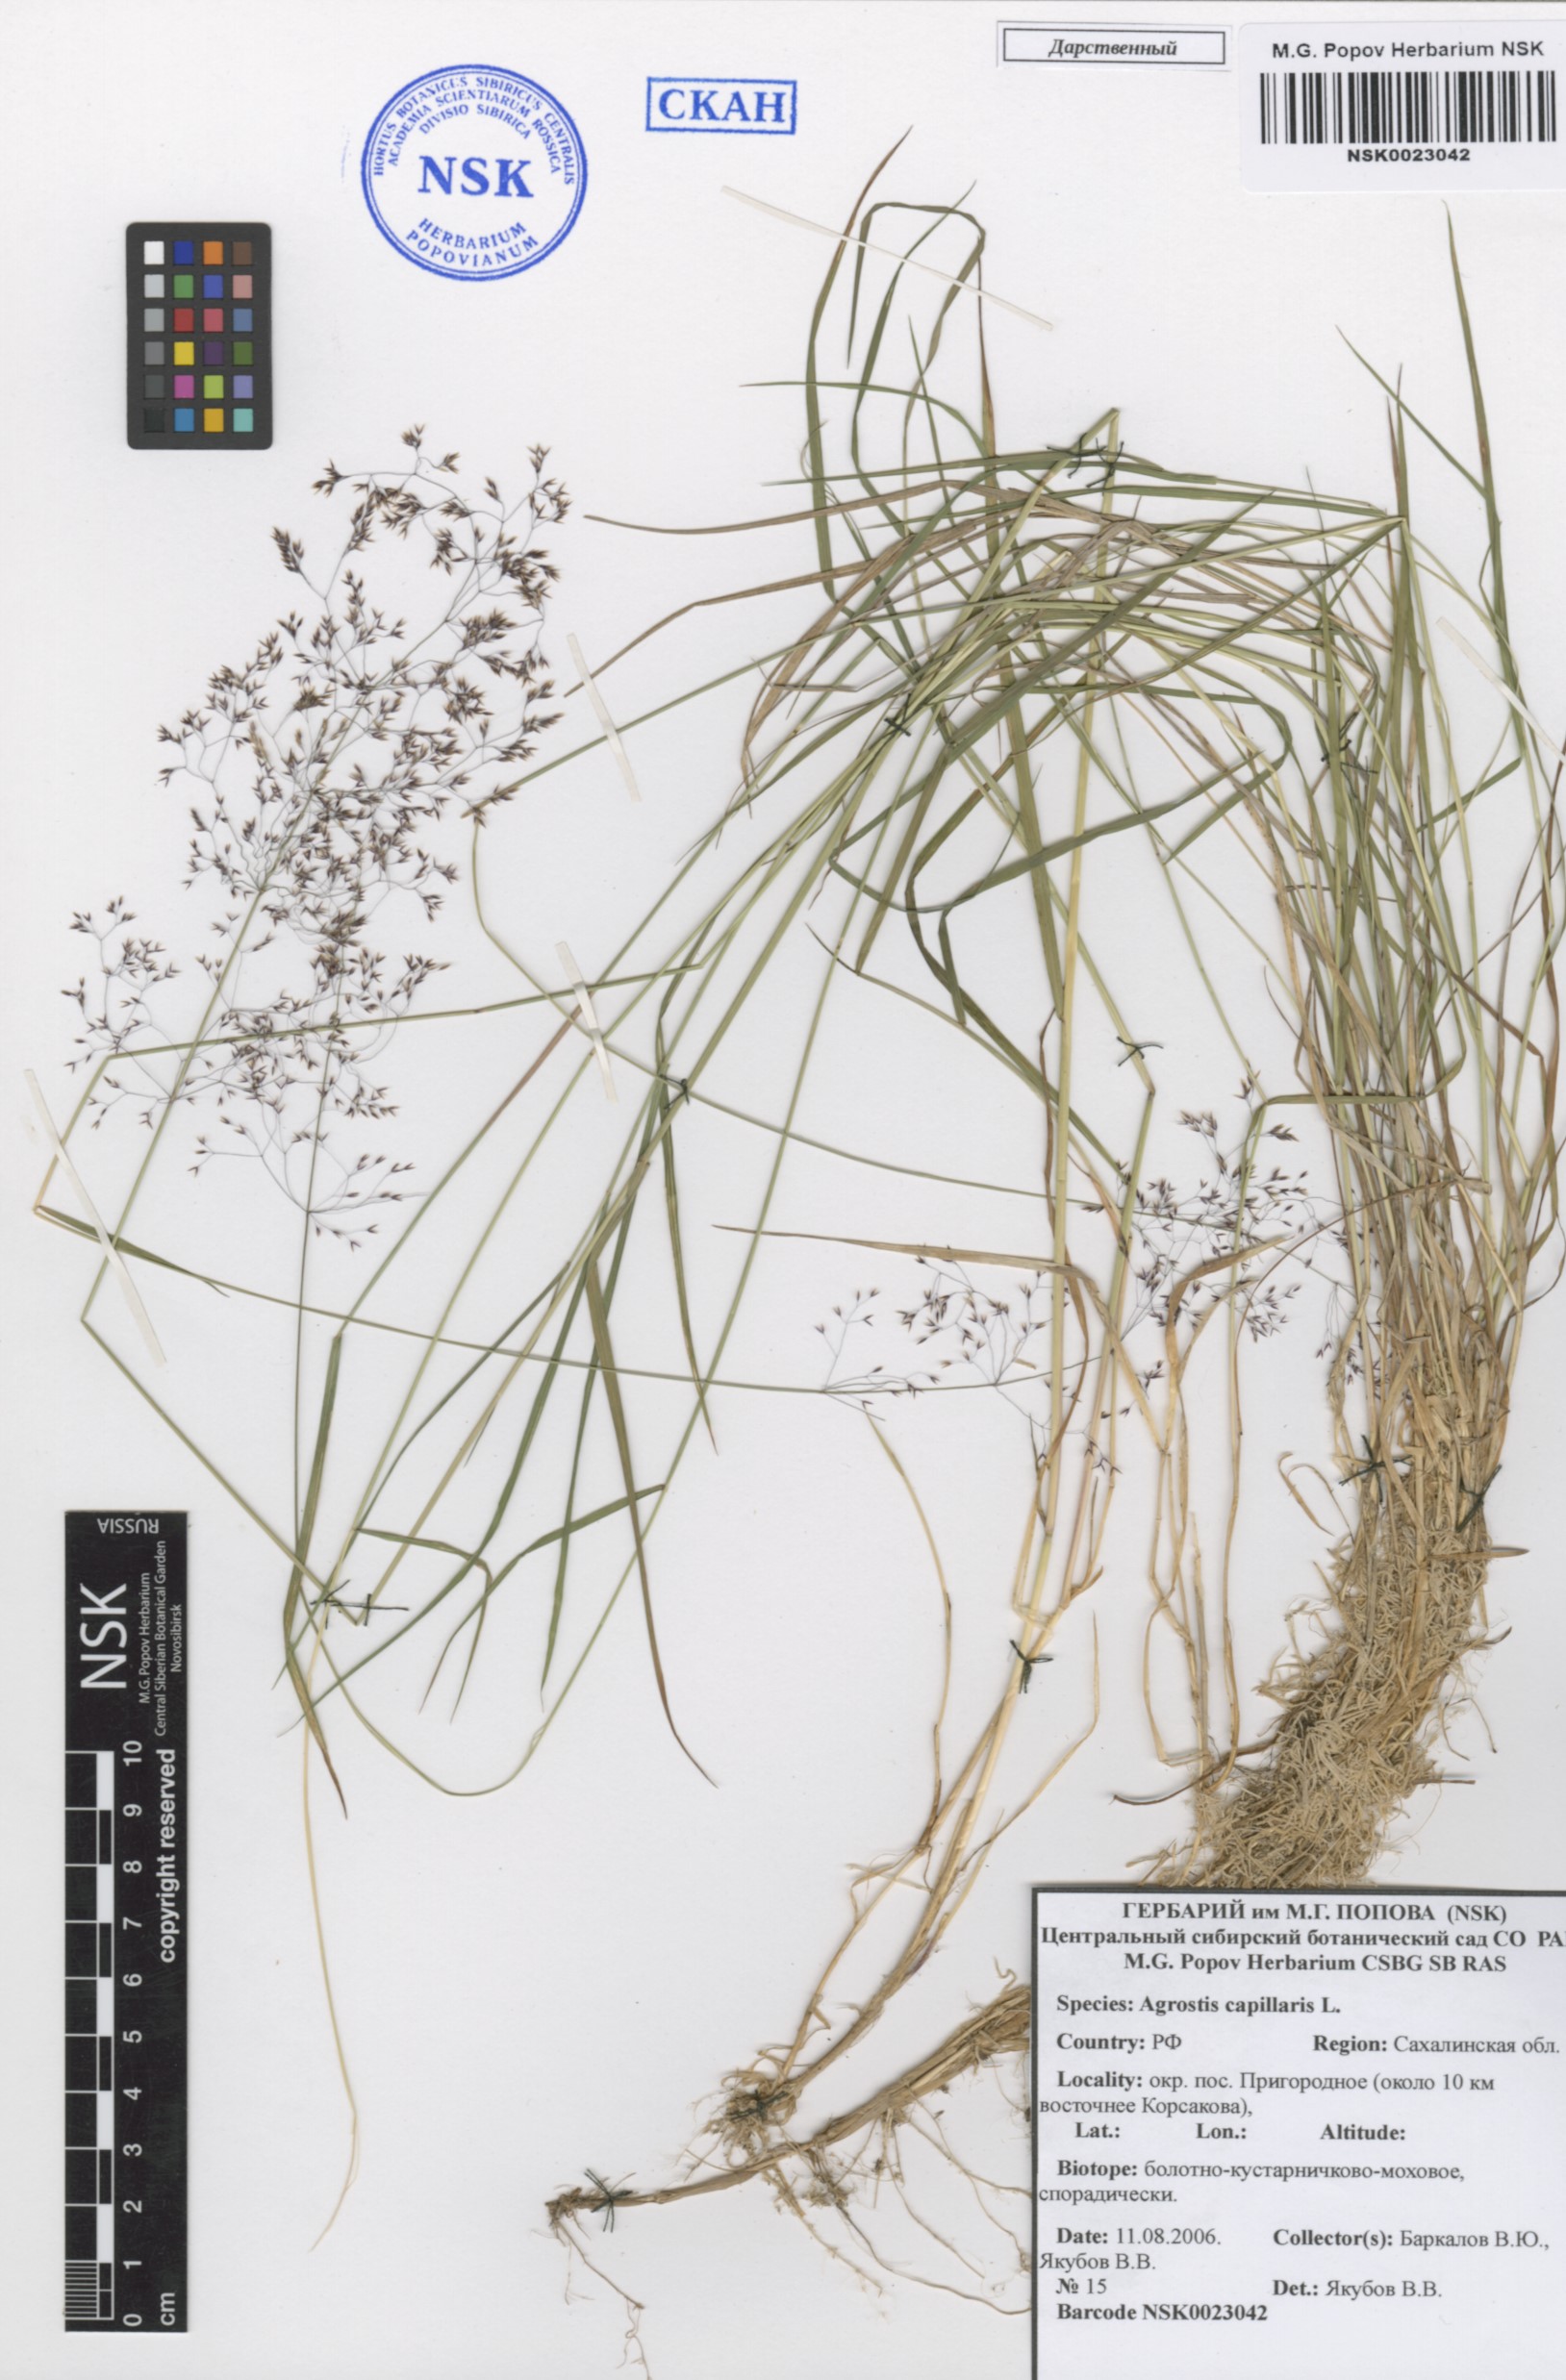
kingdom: Plantae
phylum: Tracheophyta
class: Liliopsida
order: Poales
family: Poaceae
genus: Agrostis
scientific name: Agrostis capillaris
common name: Colonial bentgrass
